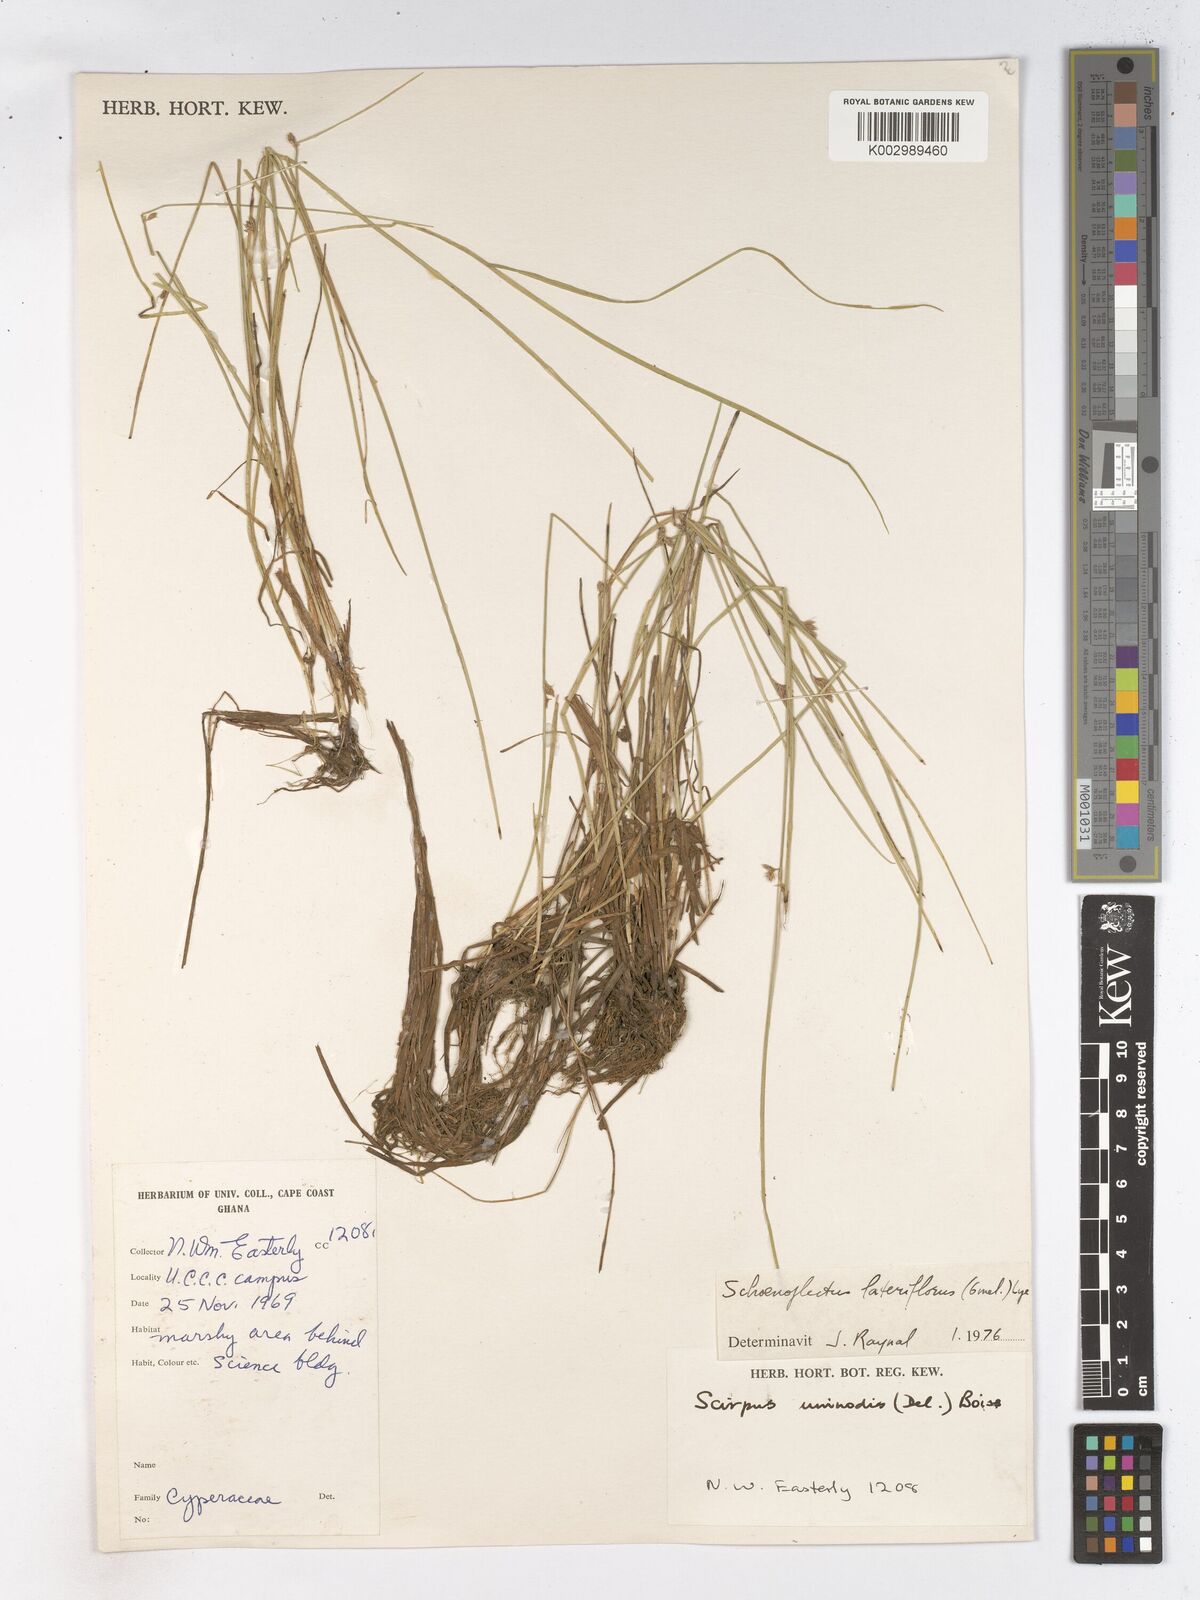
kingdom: Plantae
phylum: Tracheophyta
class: Liliopsida
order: Poales
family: Cyperaceae
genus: Schoenoplectiella
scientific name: Schoenoplectiella lateriflora
